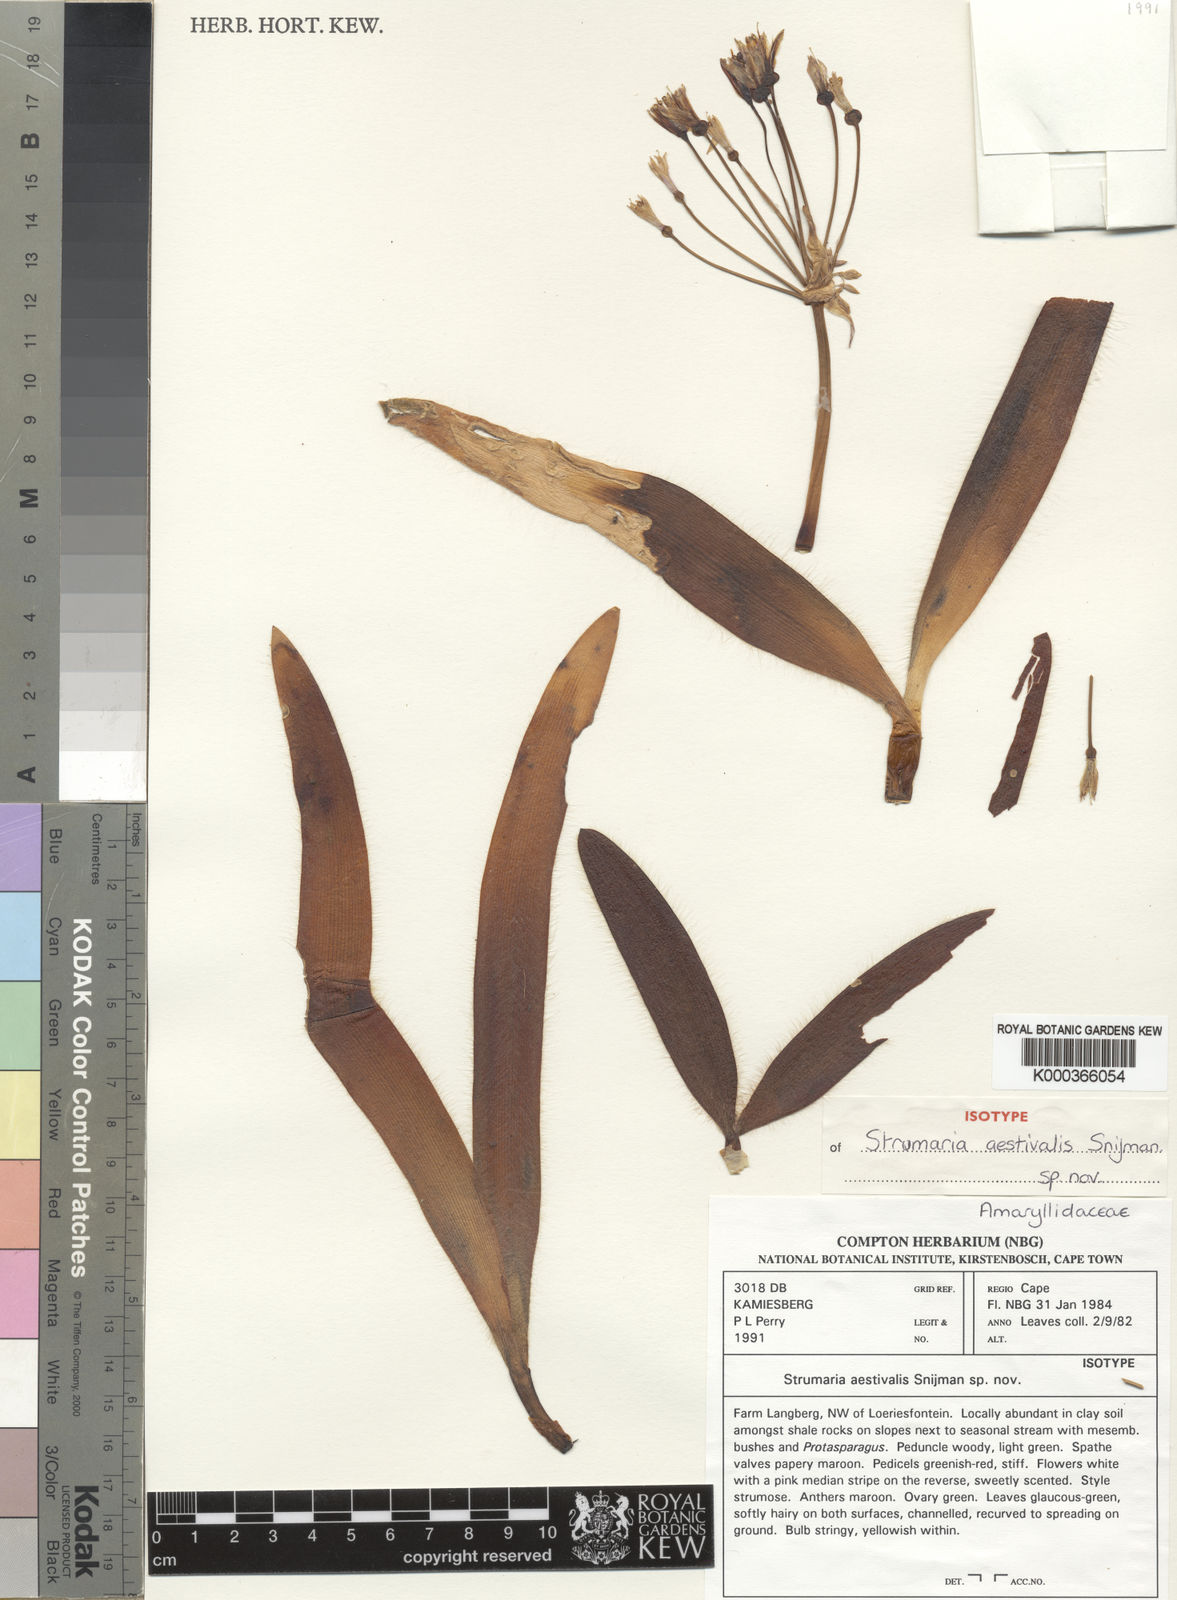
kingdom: Plantae
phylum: Tracheophyta
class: Liliopsida
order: Asparagales
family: Amaryllidaceae
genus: Strumaria
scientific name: Strumaria aestivalis
